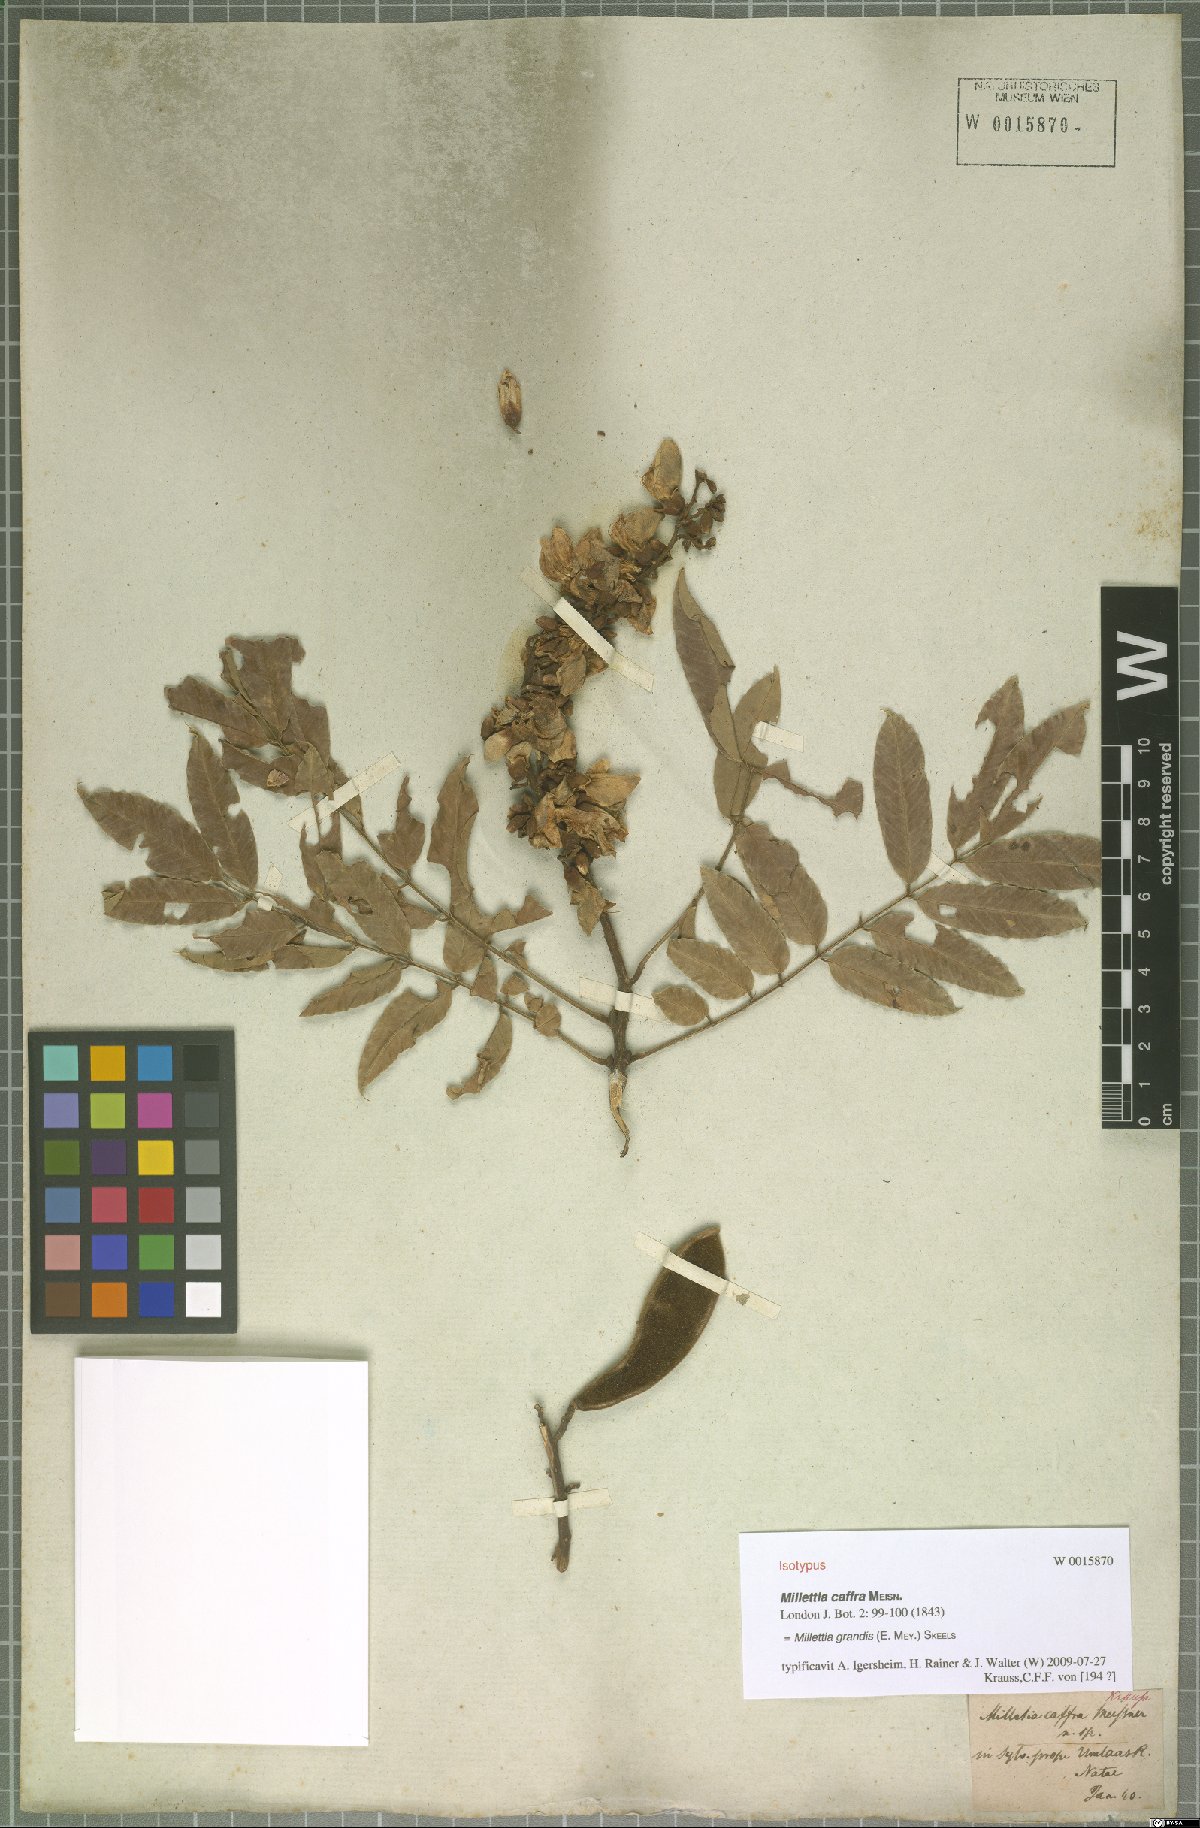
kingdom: Plantae
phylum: Tracheophyta
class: Magnoliopsida
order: Fabales
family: Fabaceae
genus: Millettia
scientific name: Millettia grandis
